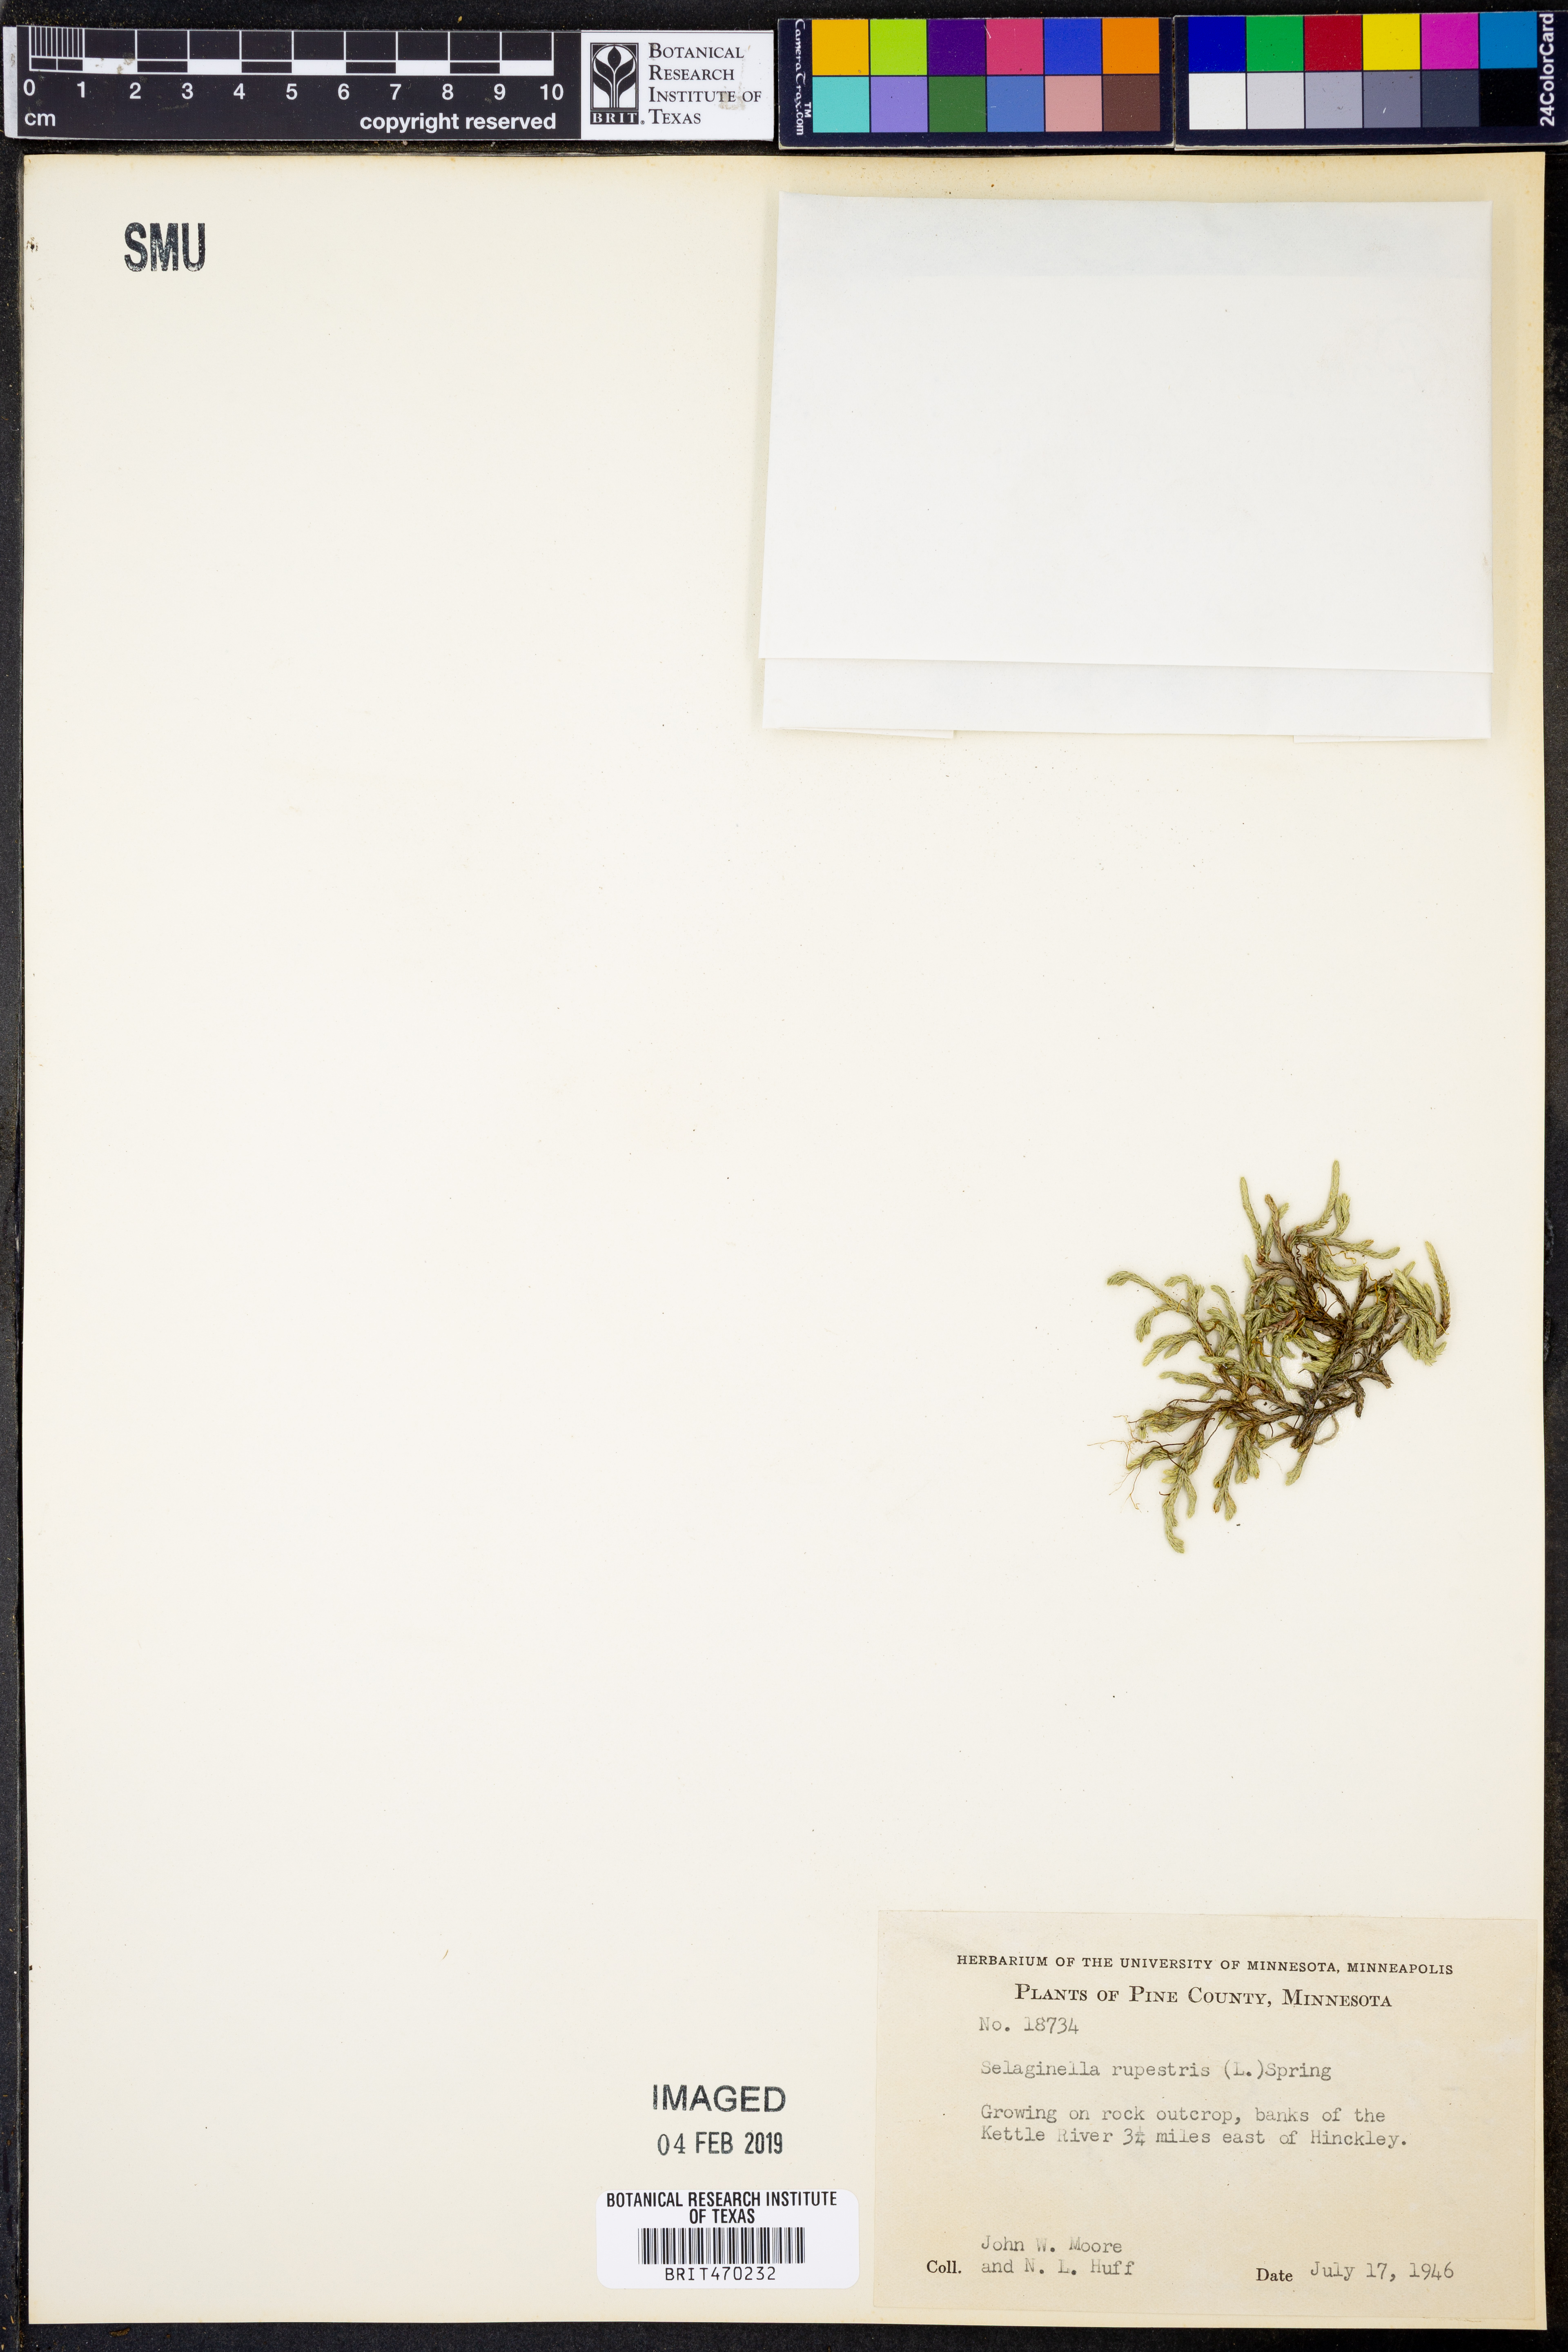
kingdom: Plantae
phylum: Tracheophyta
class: Lycopodiopsida
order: Selaginellales
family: Selaginellaceae
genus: Selaginella
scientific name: Selaginella rupestris
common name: Dwarf spikemoss
